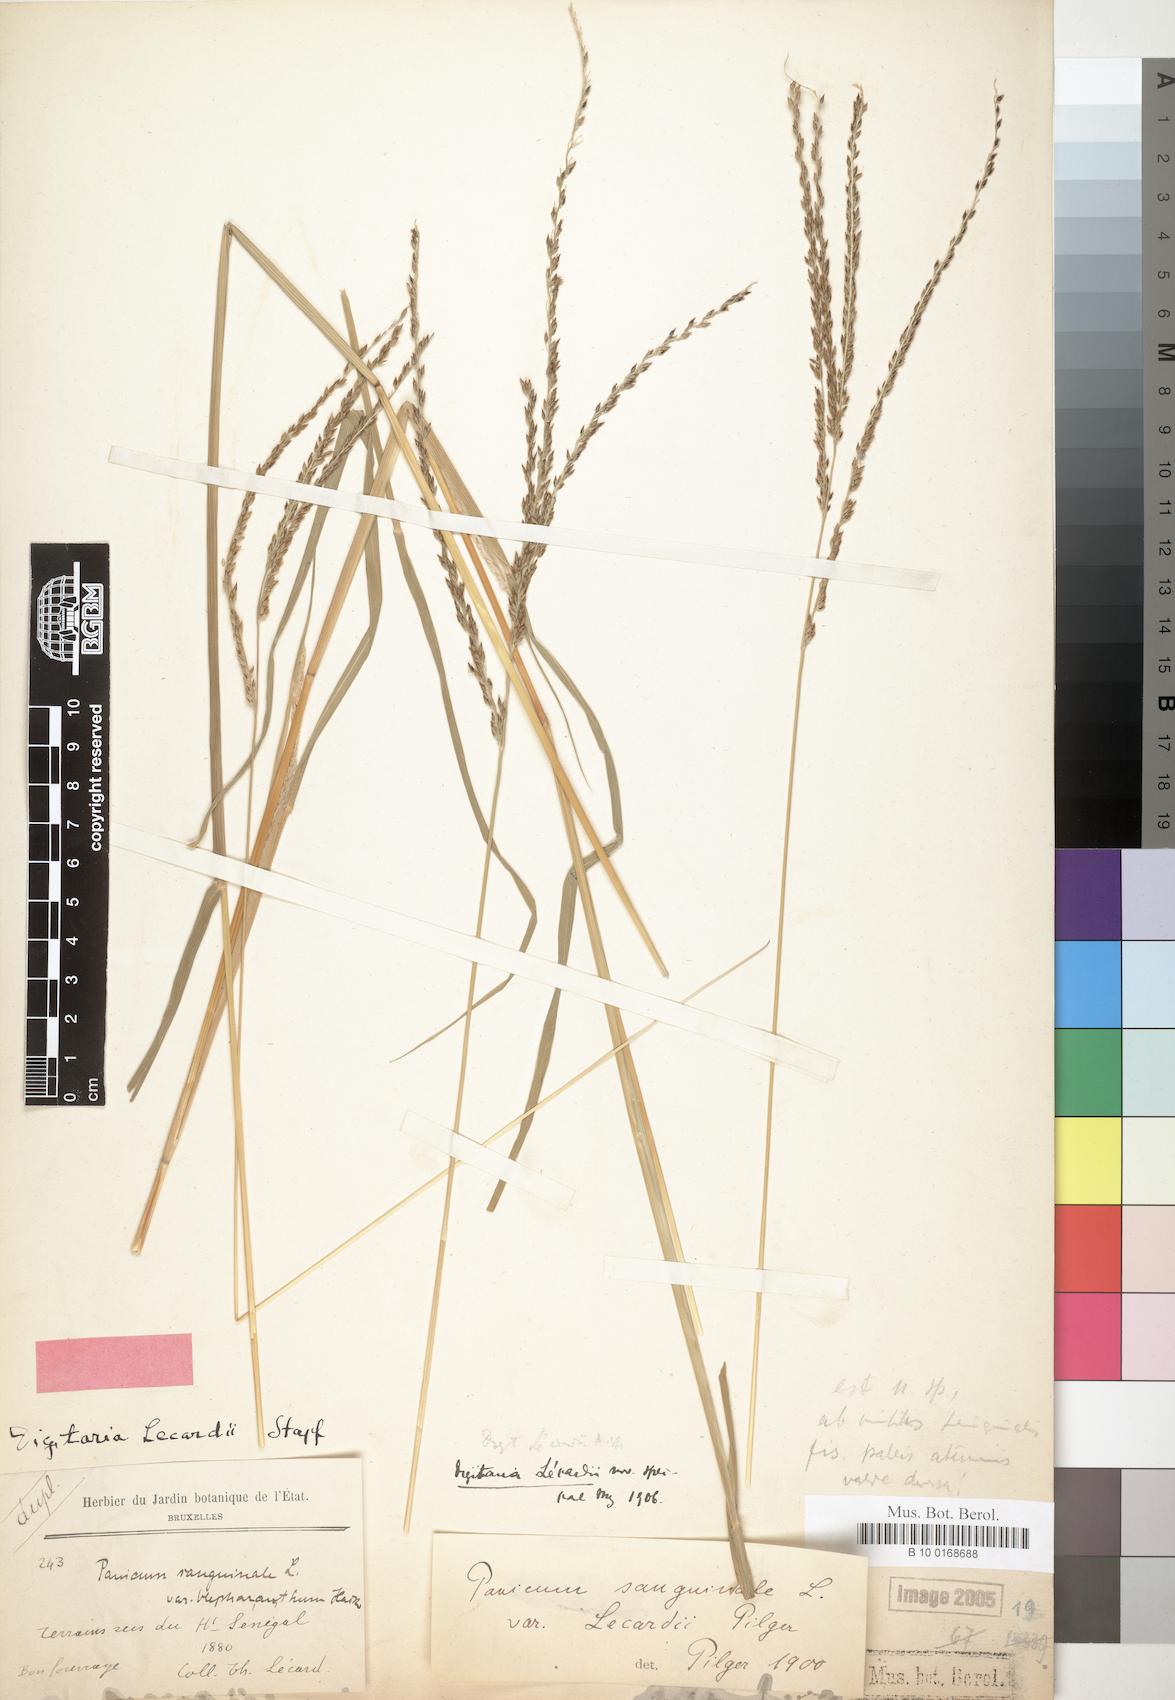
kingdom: Plantae
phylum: Tracheophyta
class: Liliopsida
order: Poales
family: Poaceae
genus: Digitaria
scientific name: Digitaria argillacea
